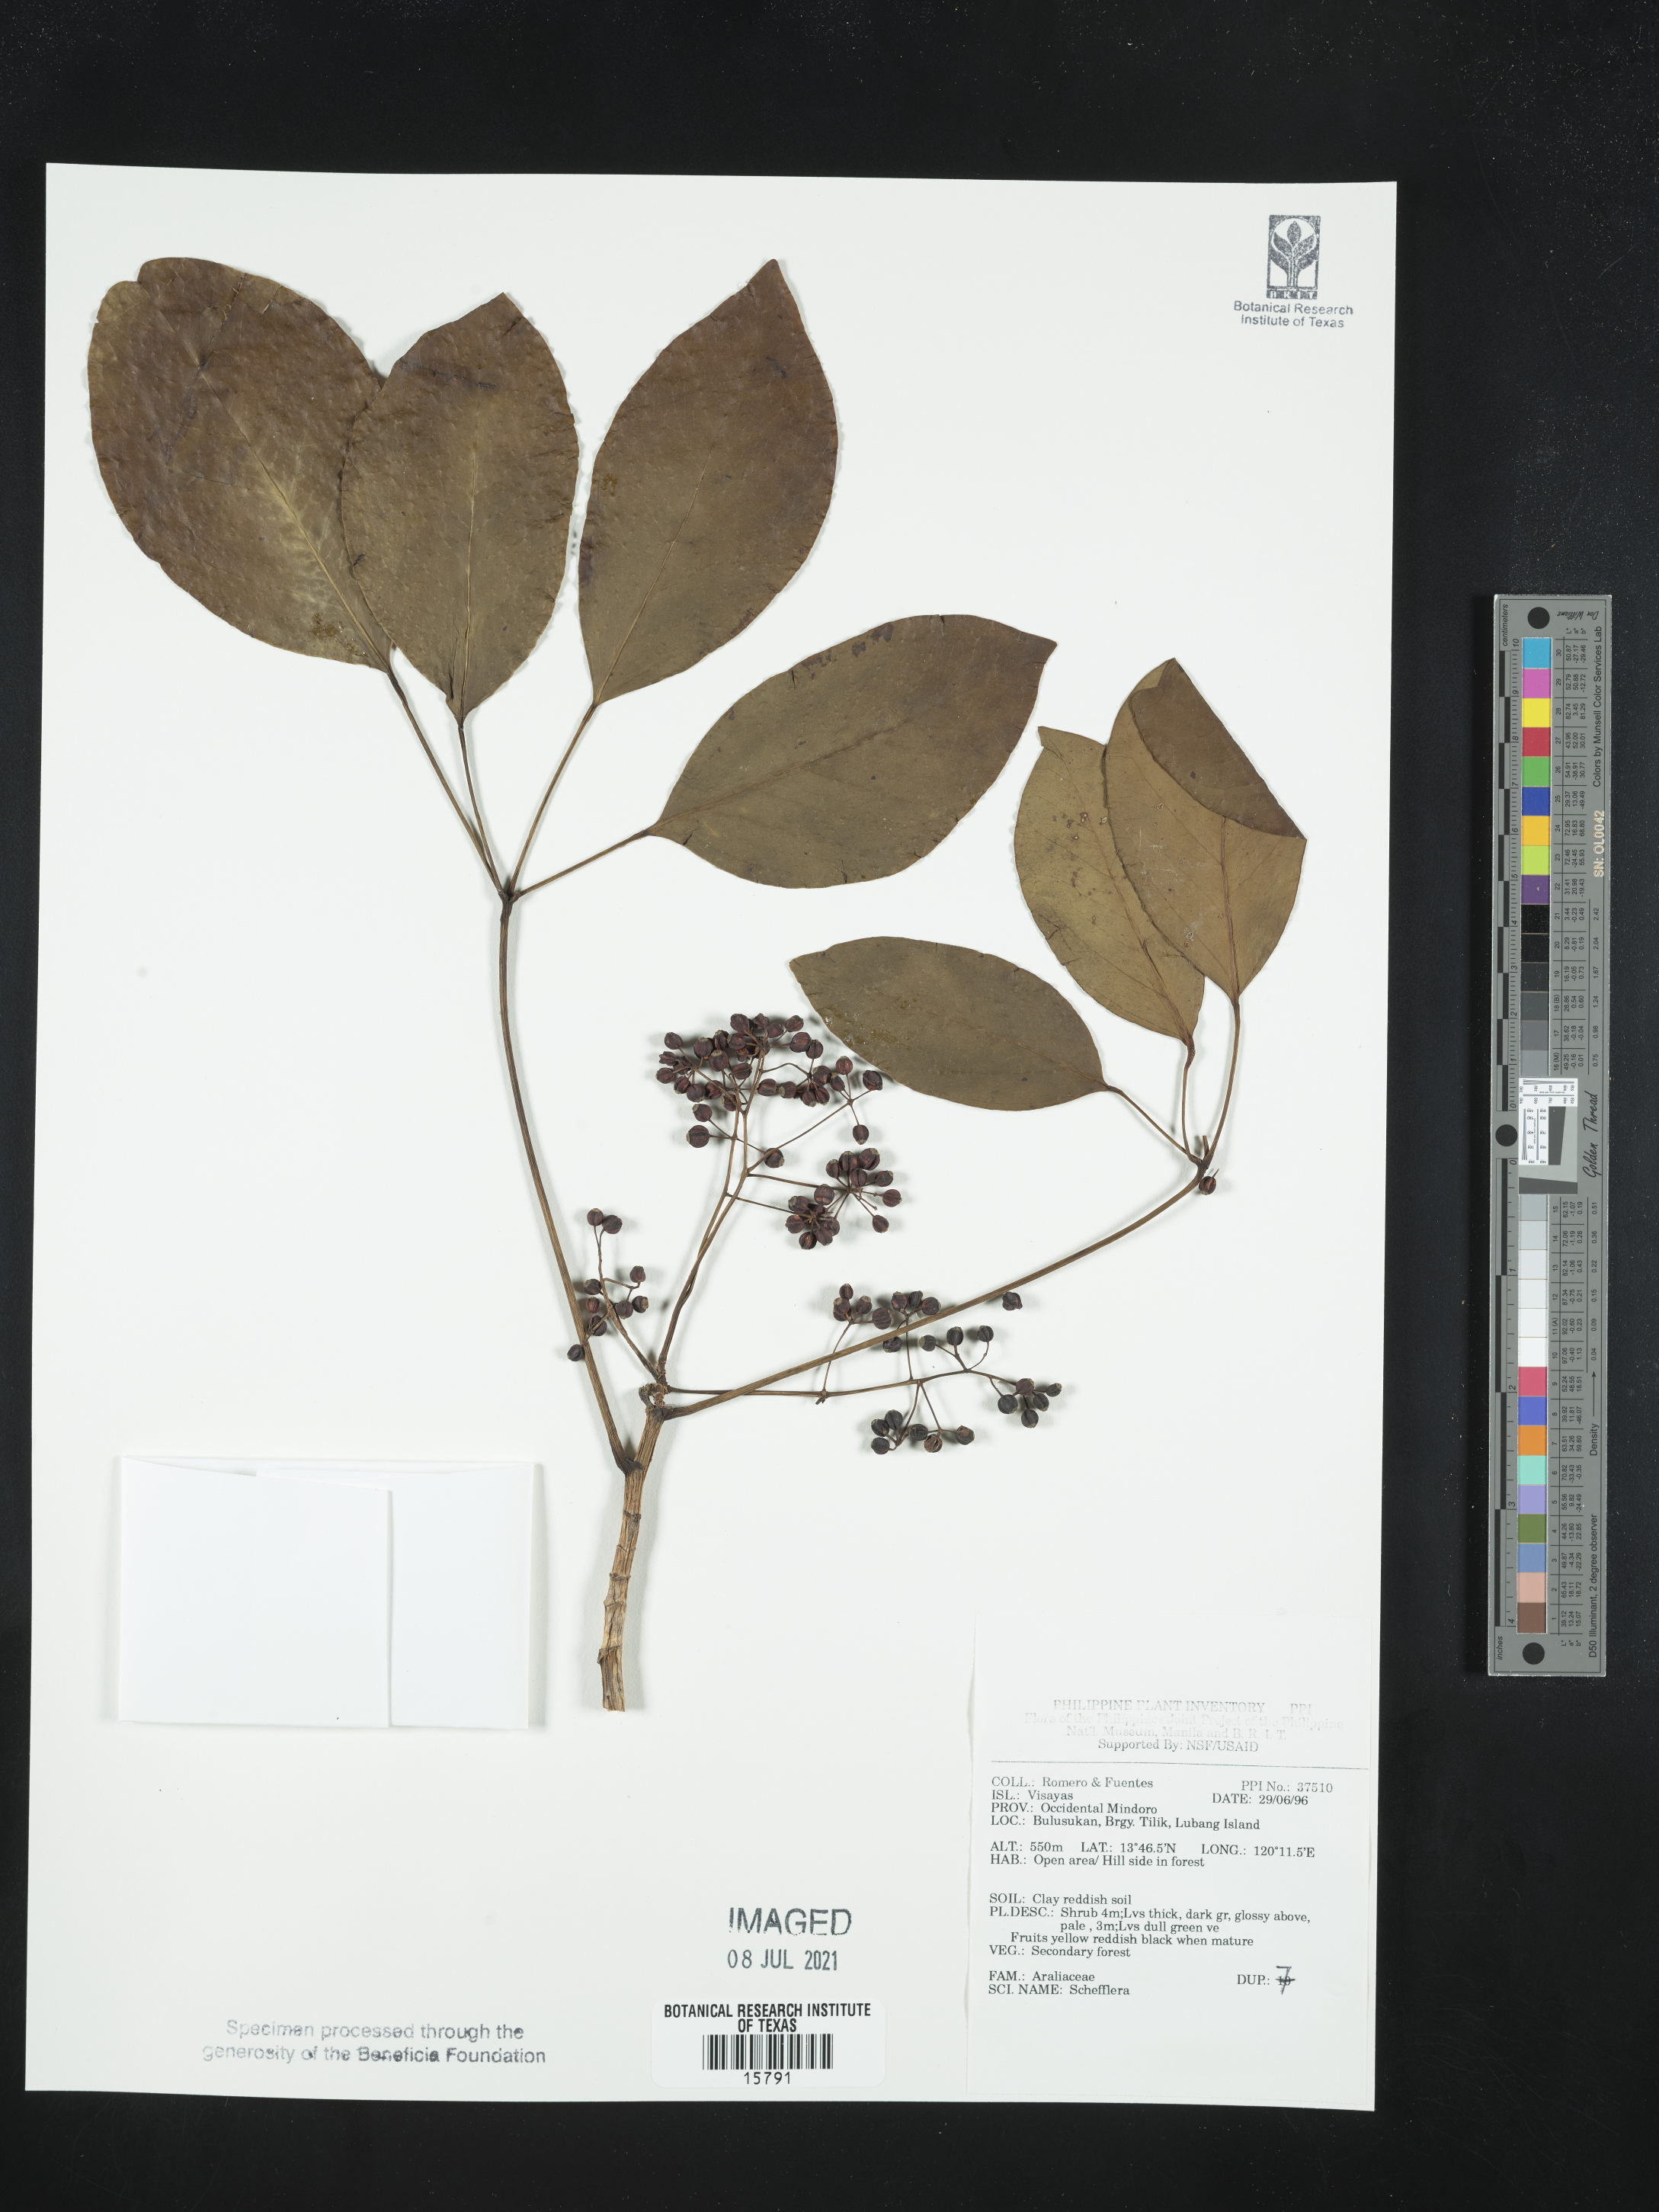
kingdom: Plantae
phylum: Tracheophyta
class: Magnoliopsida
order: Apiales
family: Araliaceae
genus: Schefflera
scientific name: Schefflera
